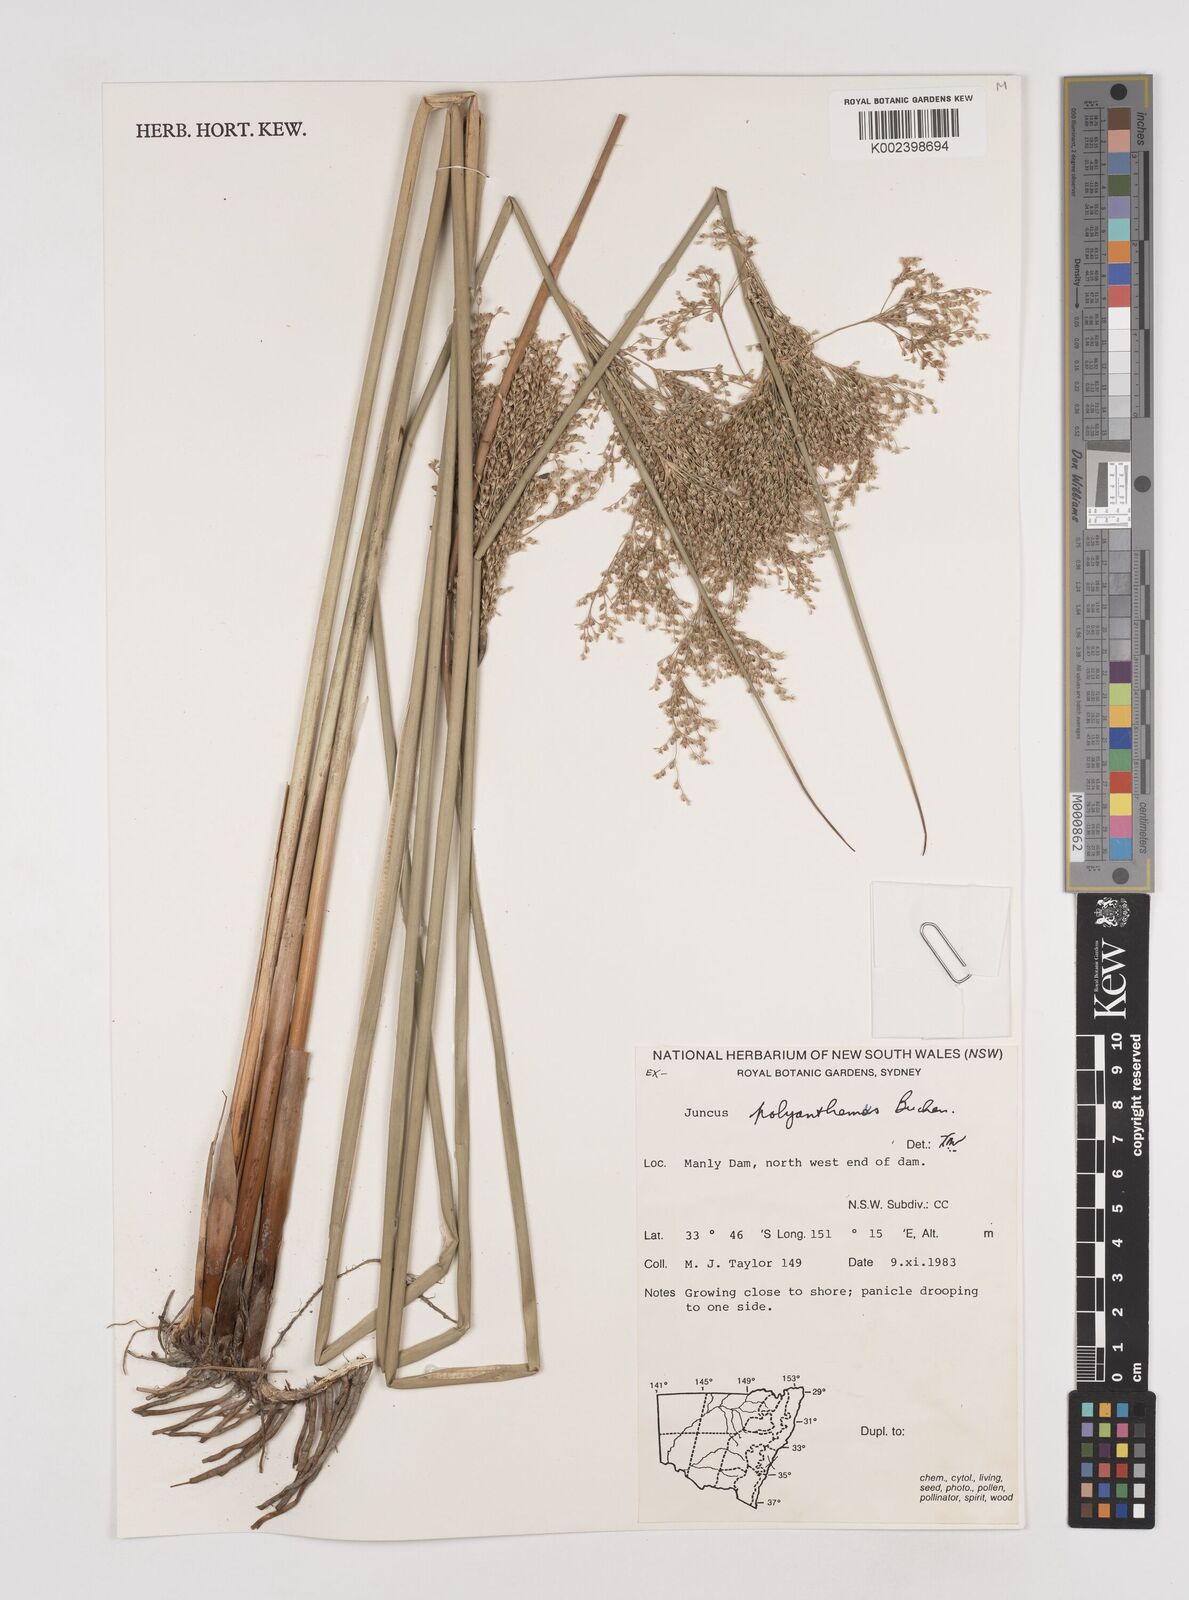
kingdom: Plantae
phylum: Tracheophyta
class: Liliopsida
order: Poales
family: Juncaceae
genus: Juncus
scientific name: Juncus
